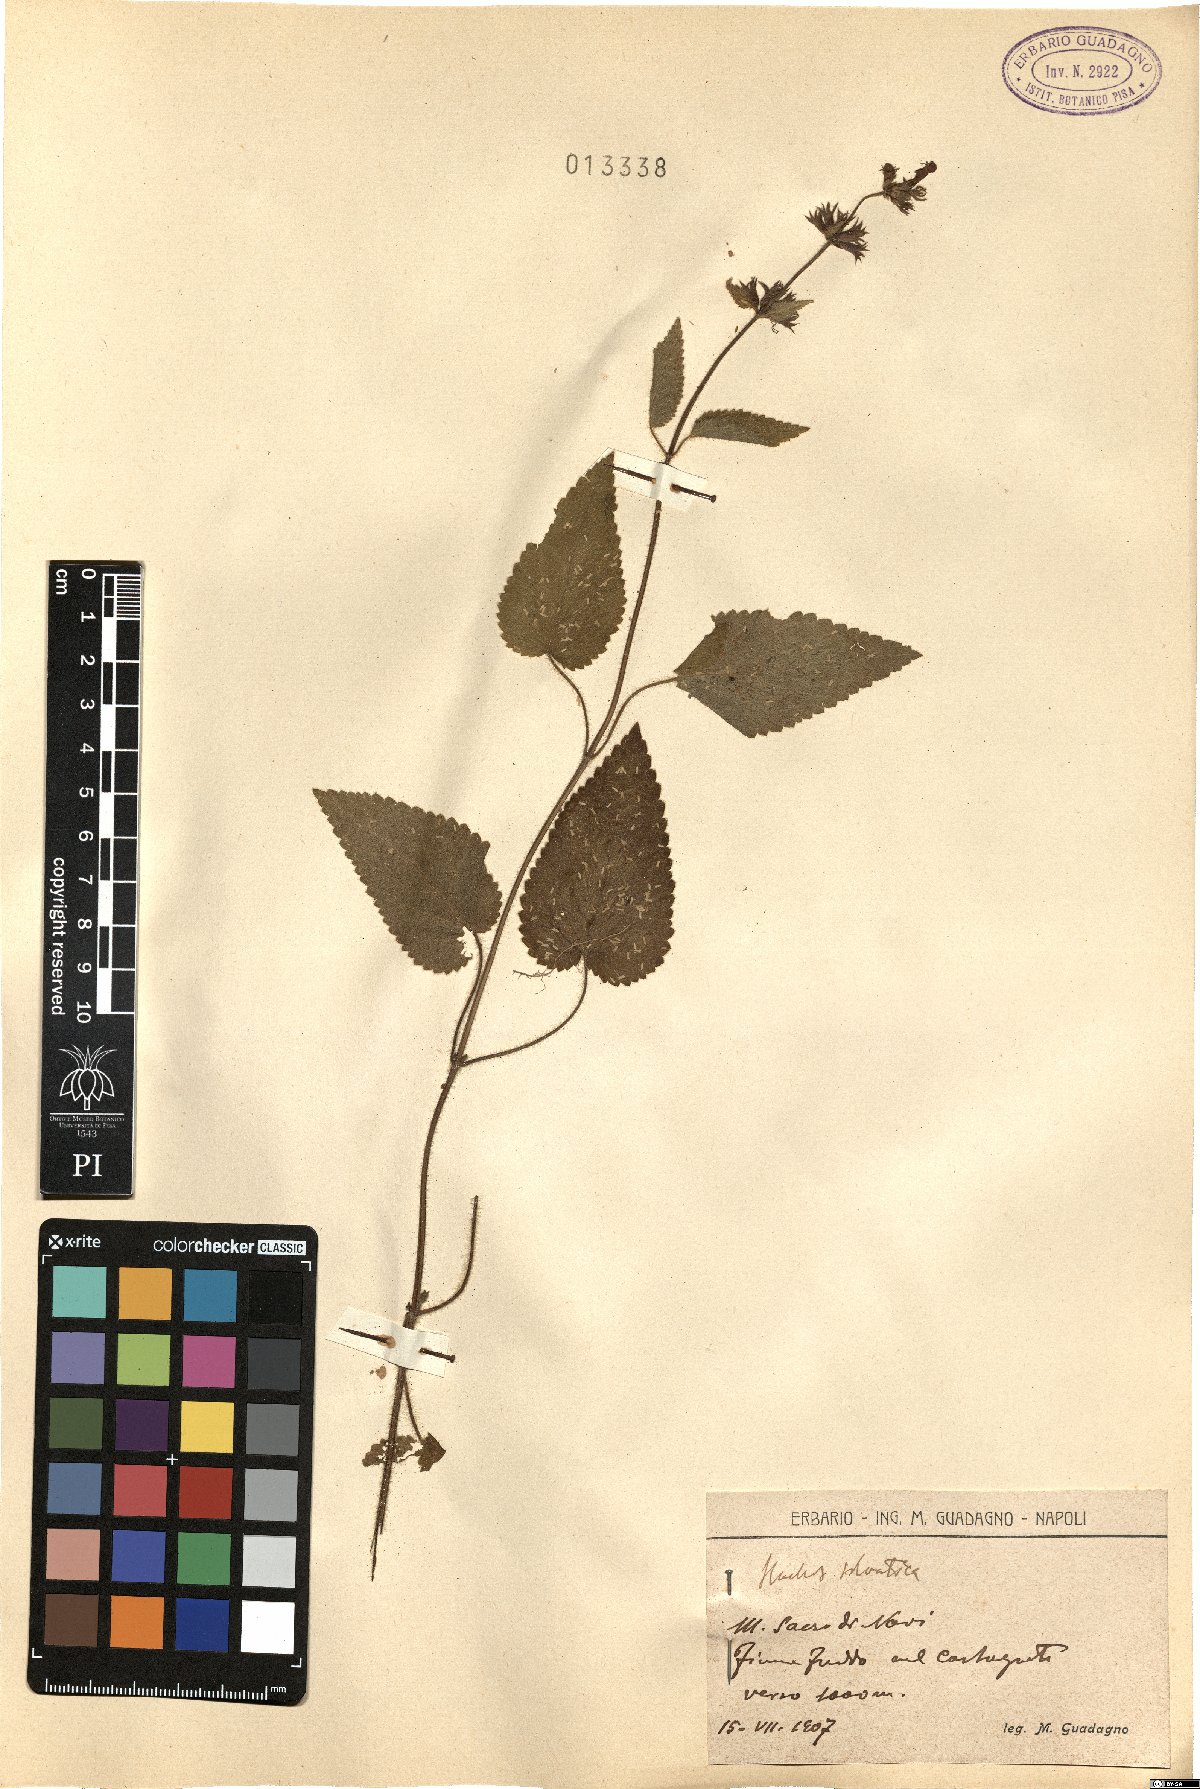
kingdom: Plantae
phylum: Tracheophyta
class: Magnoliopsida
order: Lamiales
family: Lamiaceae
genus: Stachys
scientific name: Stachys sylvatica
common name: Hedge woundwort
